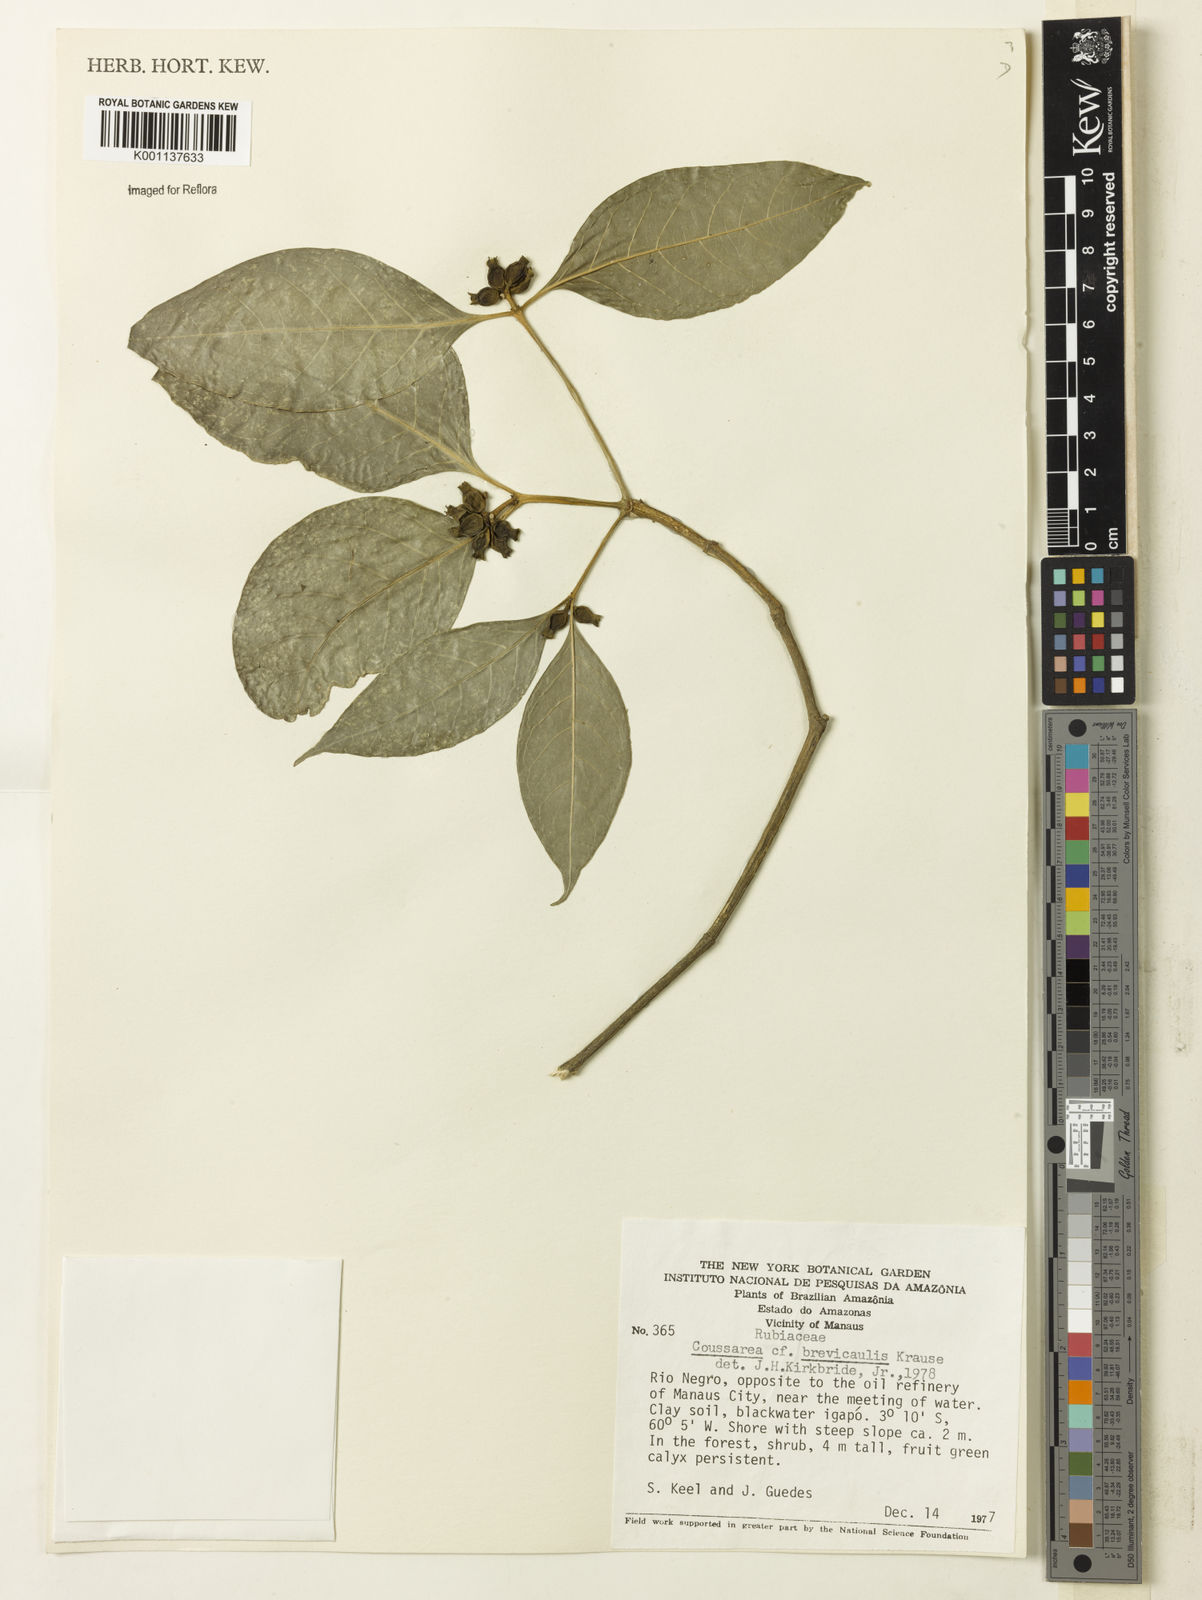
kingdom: Plantae
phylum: Tracheophyta
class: Magnoliopsida
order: Gentianales
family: Rubiaceae
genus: Coussarea
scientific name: Coussarea brevicaulis
